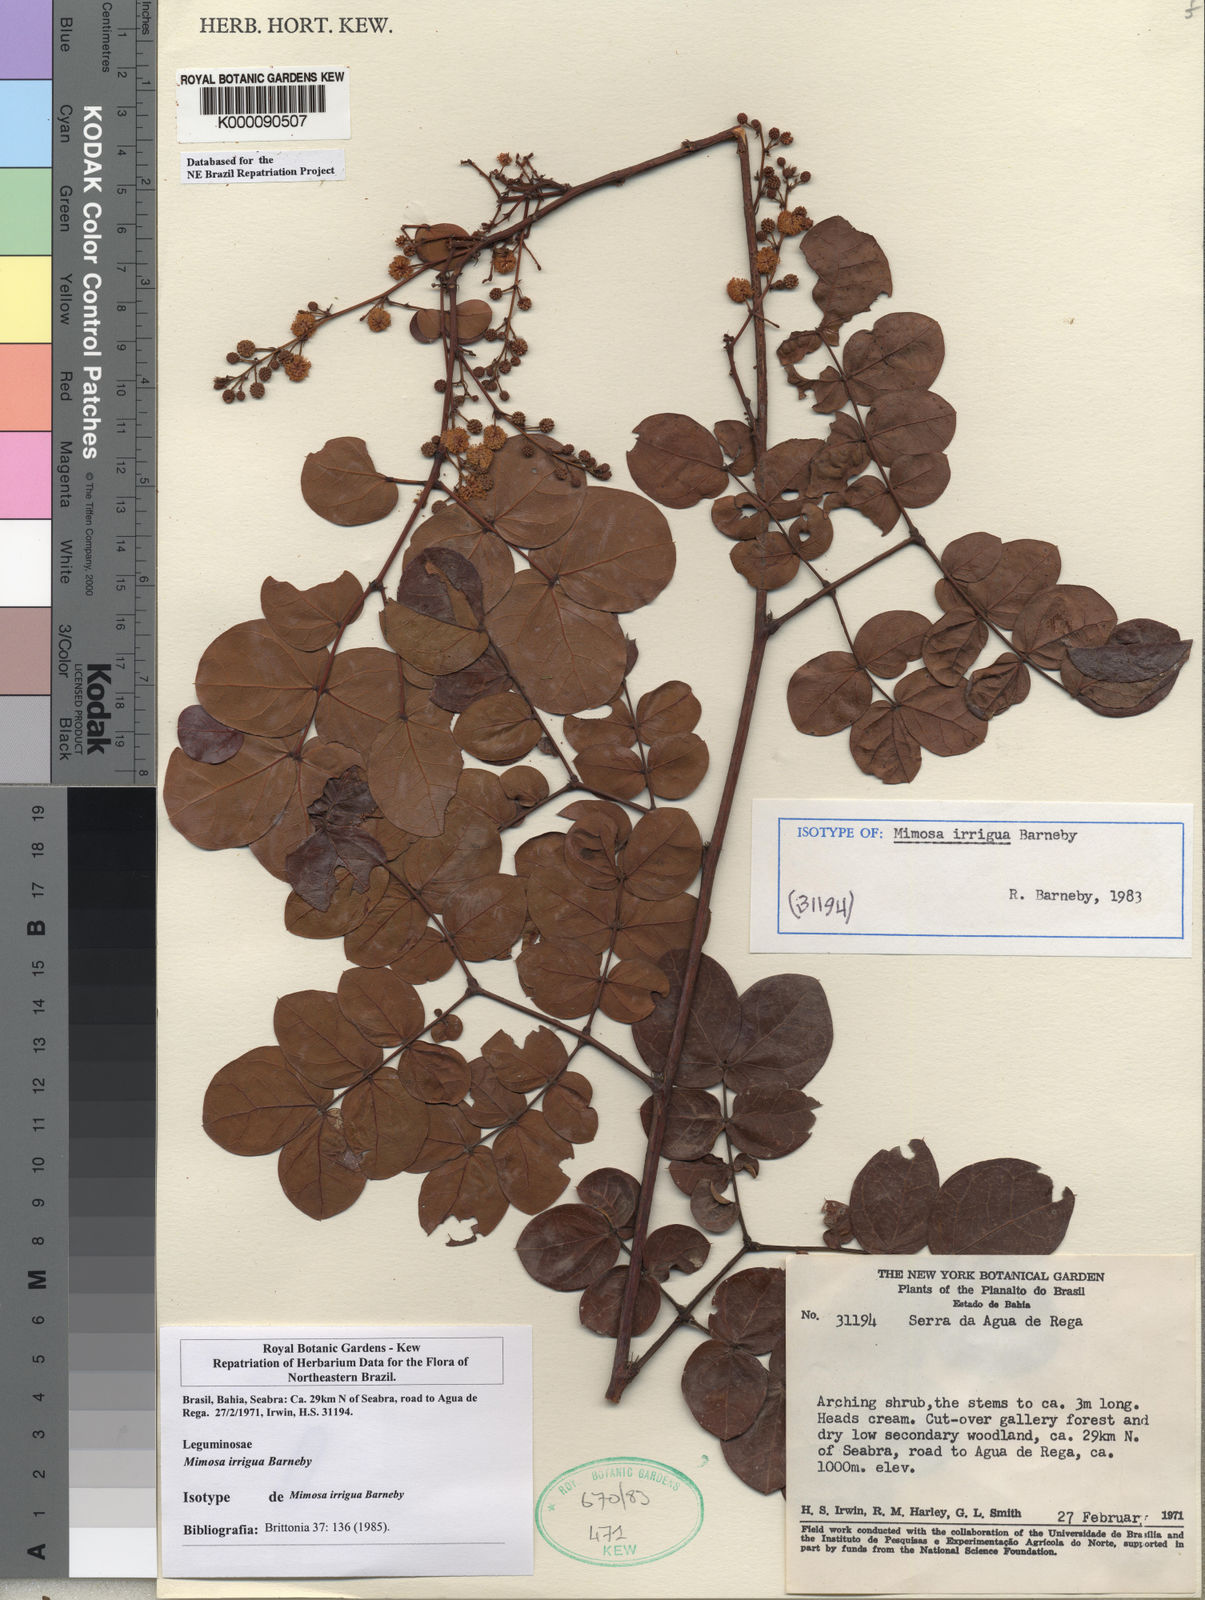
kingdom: Plantae
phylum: Tracheophyta
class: Magnoliopsida
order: Fabales
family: Fabaceae
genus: Mimosa
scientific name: Mimosa irrigua
